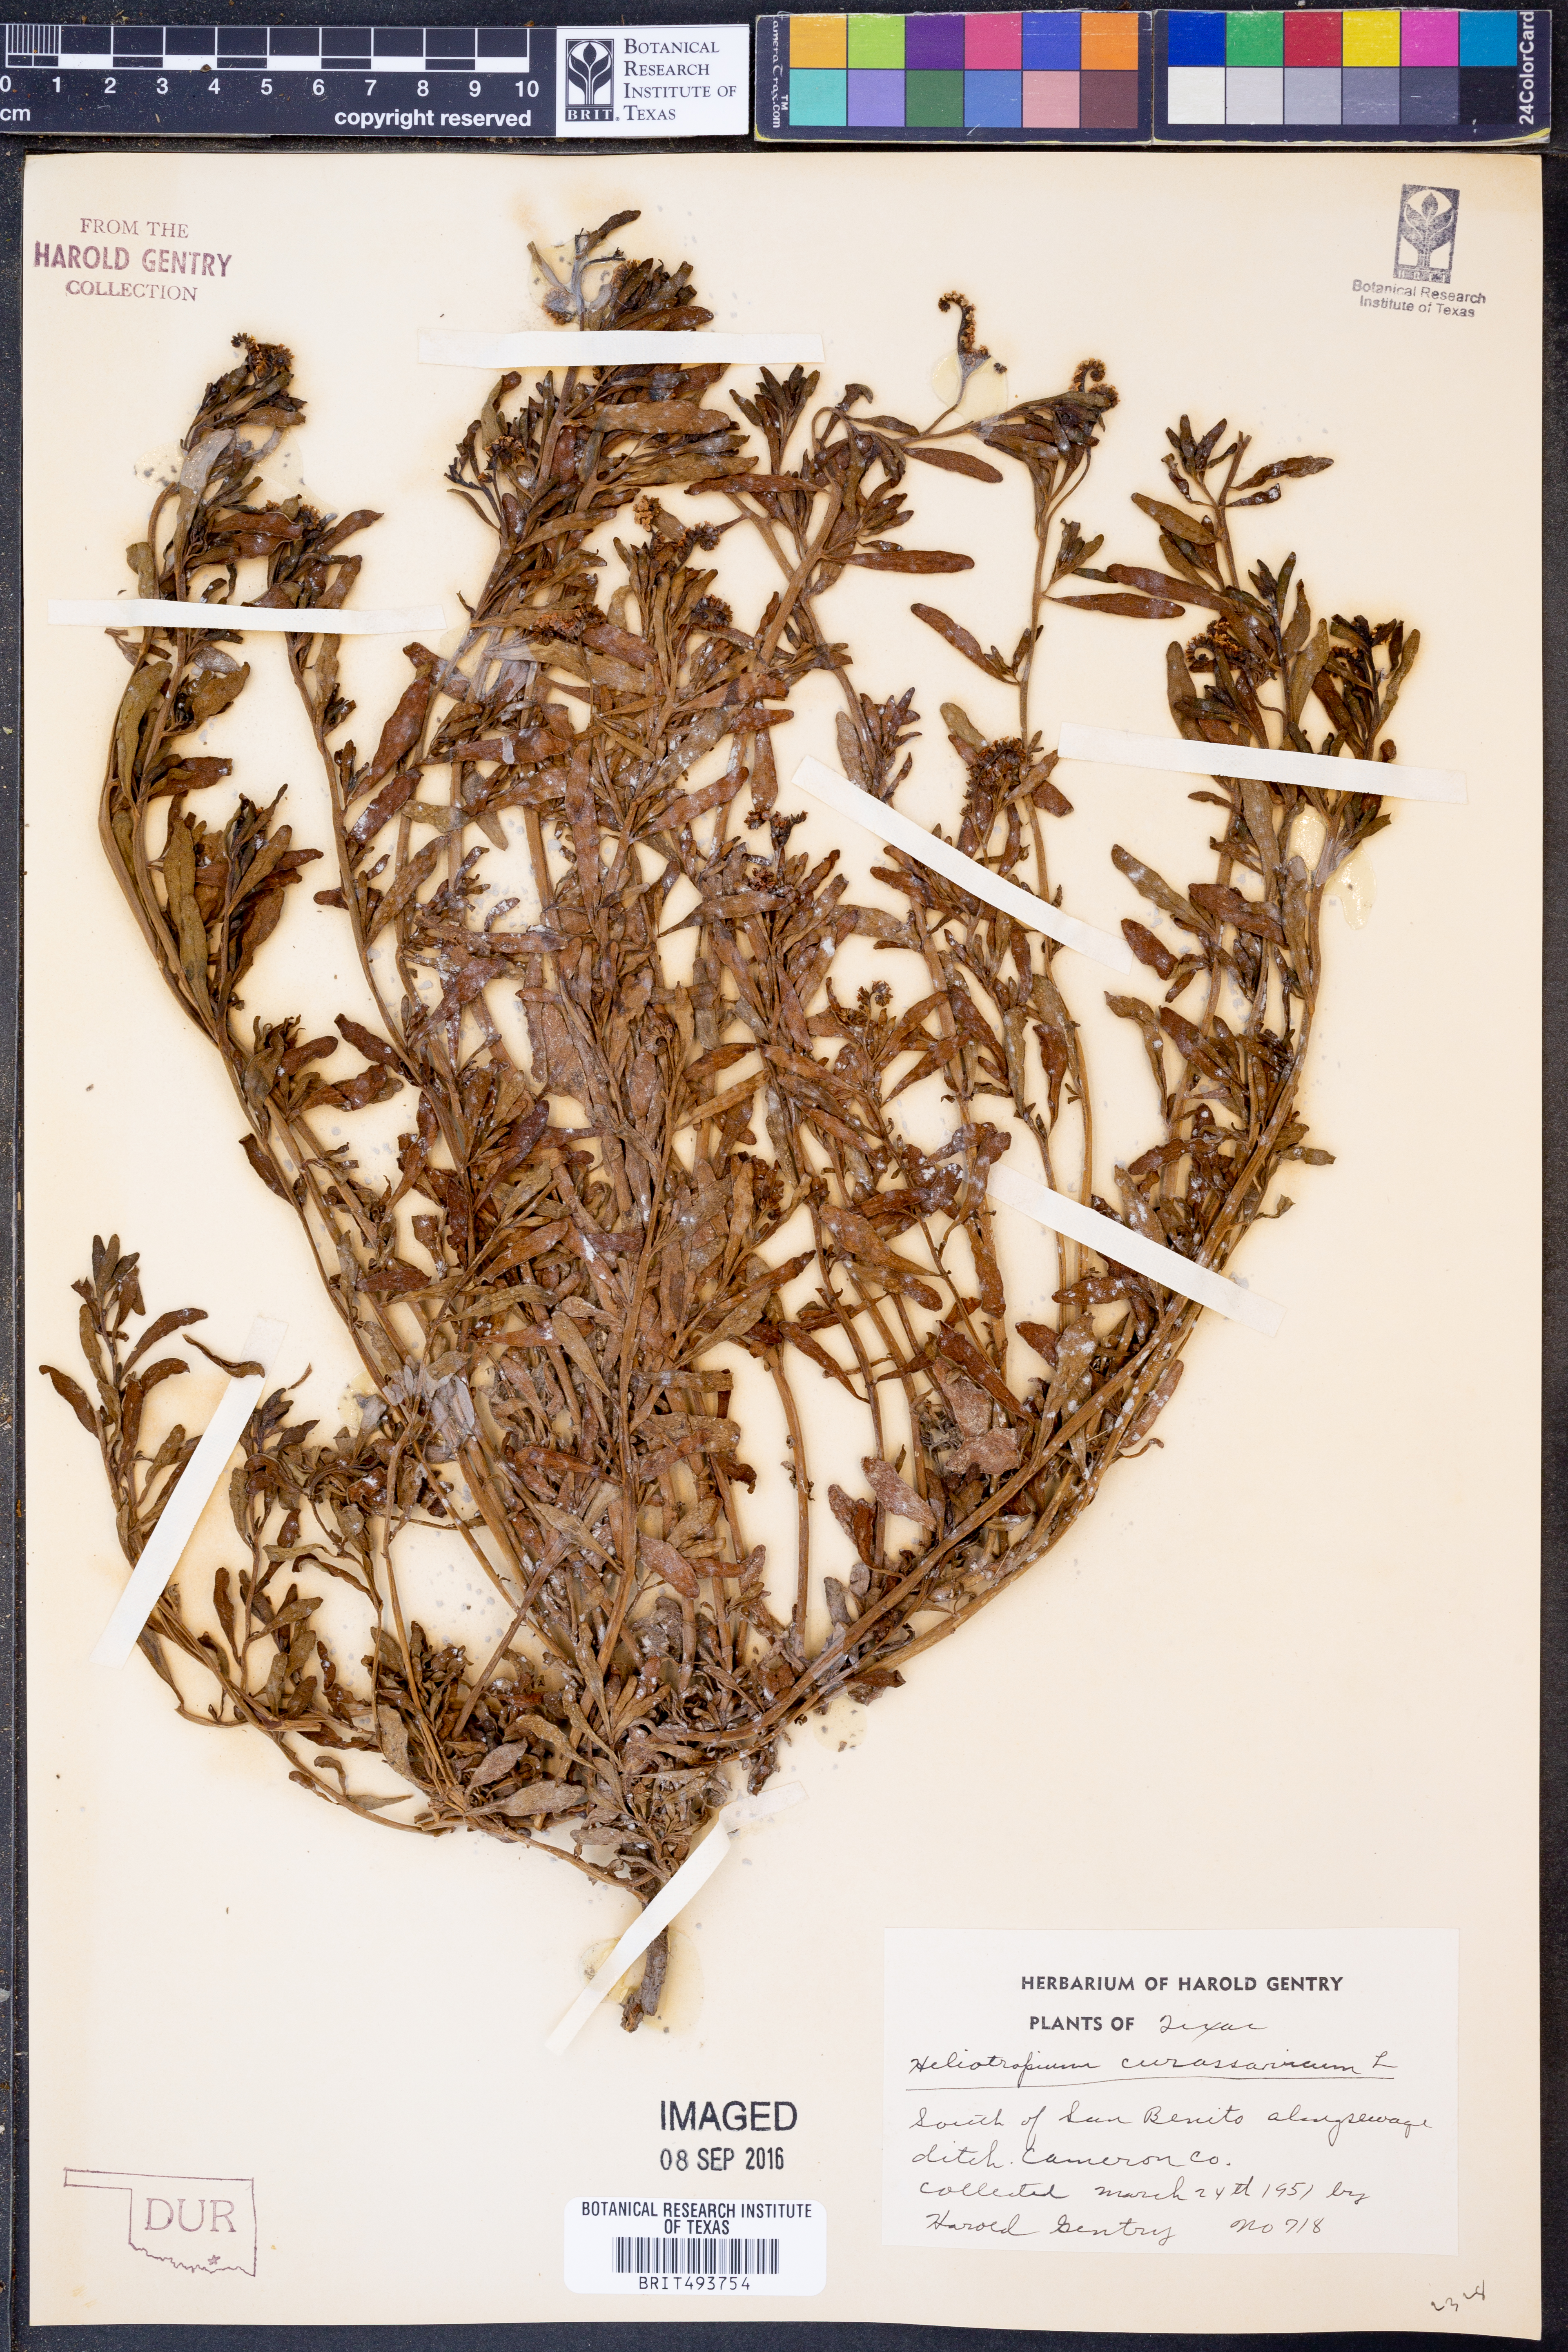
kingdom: Plantae
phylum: Tracheophyta
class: Magnoliopsida
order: Boraginales
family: Heliotropiaceae
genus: Heliotropium
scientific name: Heliotropium curassavicum
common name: Seaside heliotrope
